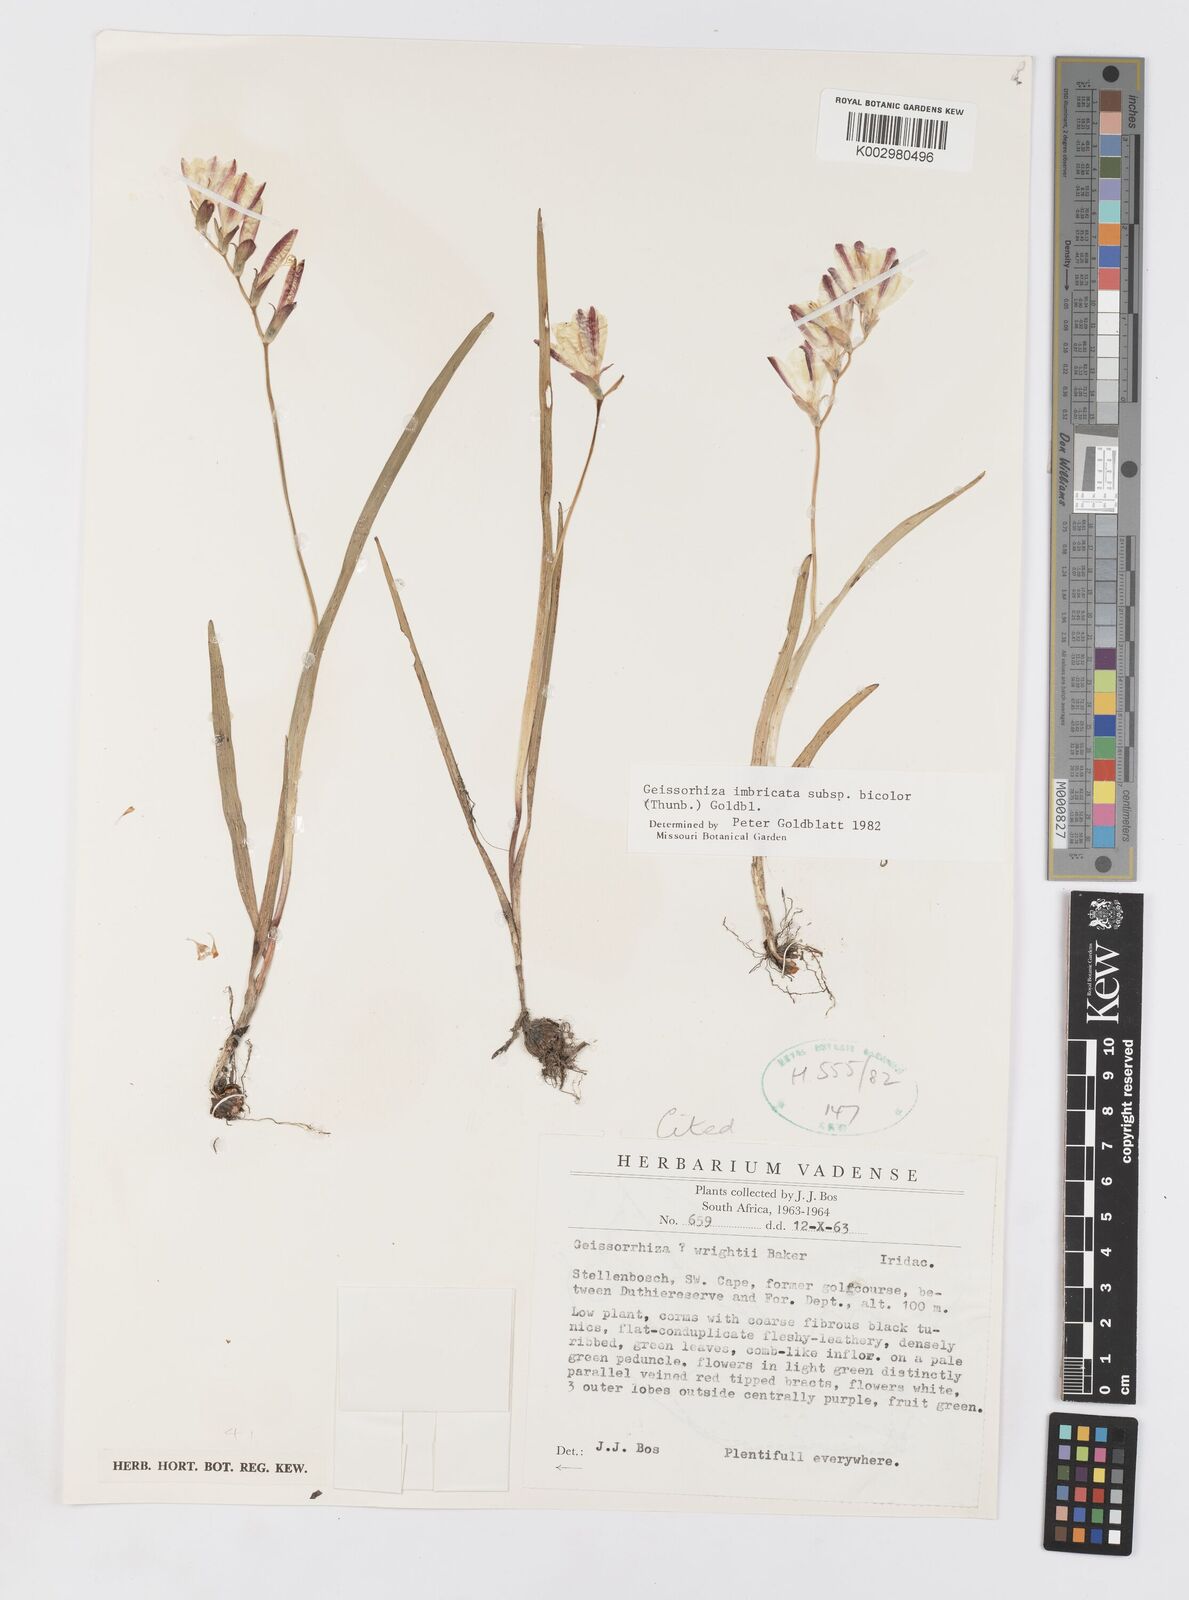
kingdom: Plantae
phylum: Tracheophyta
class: Liliopsida
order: Asparagales
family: Iridaceae
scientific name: Iridaceae
